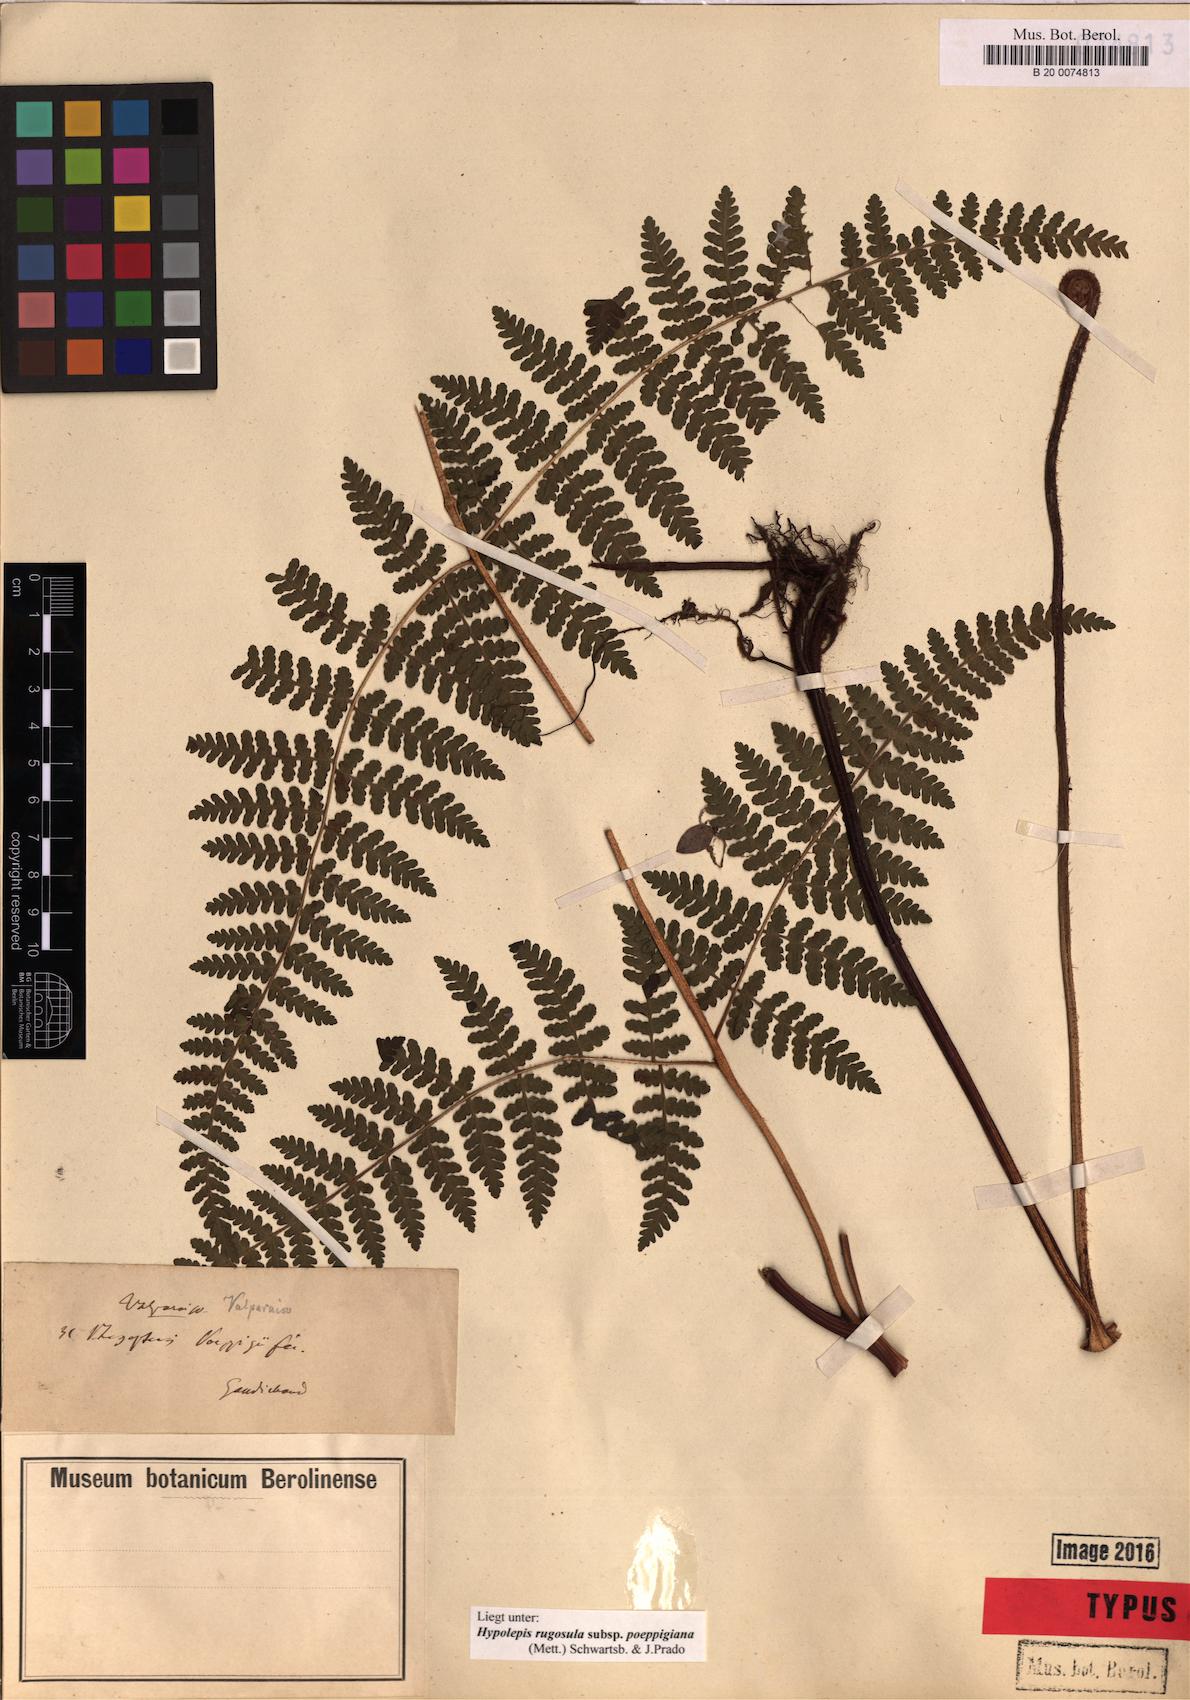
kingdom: Plantae
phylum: Tracheophyta
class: Polypodiopsida
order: Polypodiales
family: Dennstaedtiaceae
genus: Hypolepis
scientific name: Hypolepis rugosula
